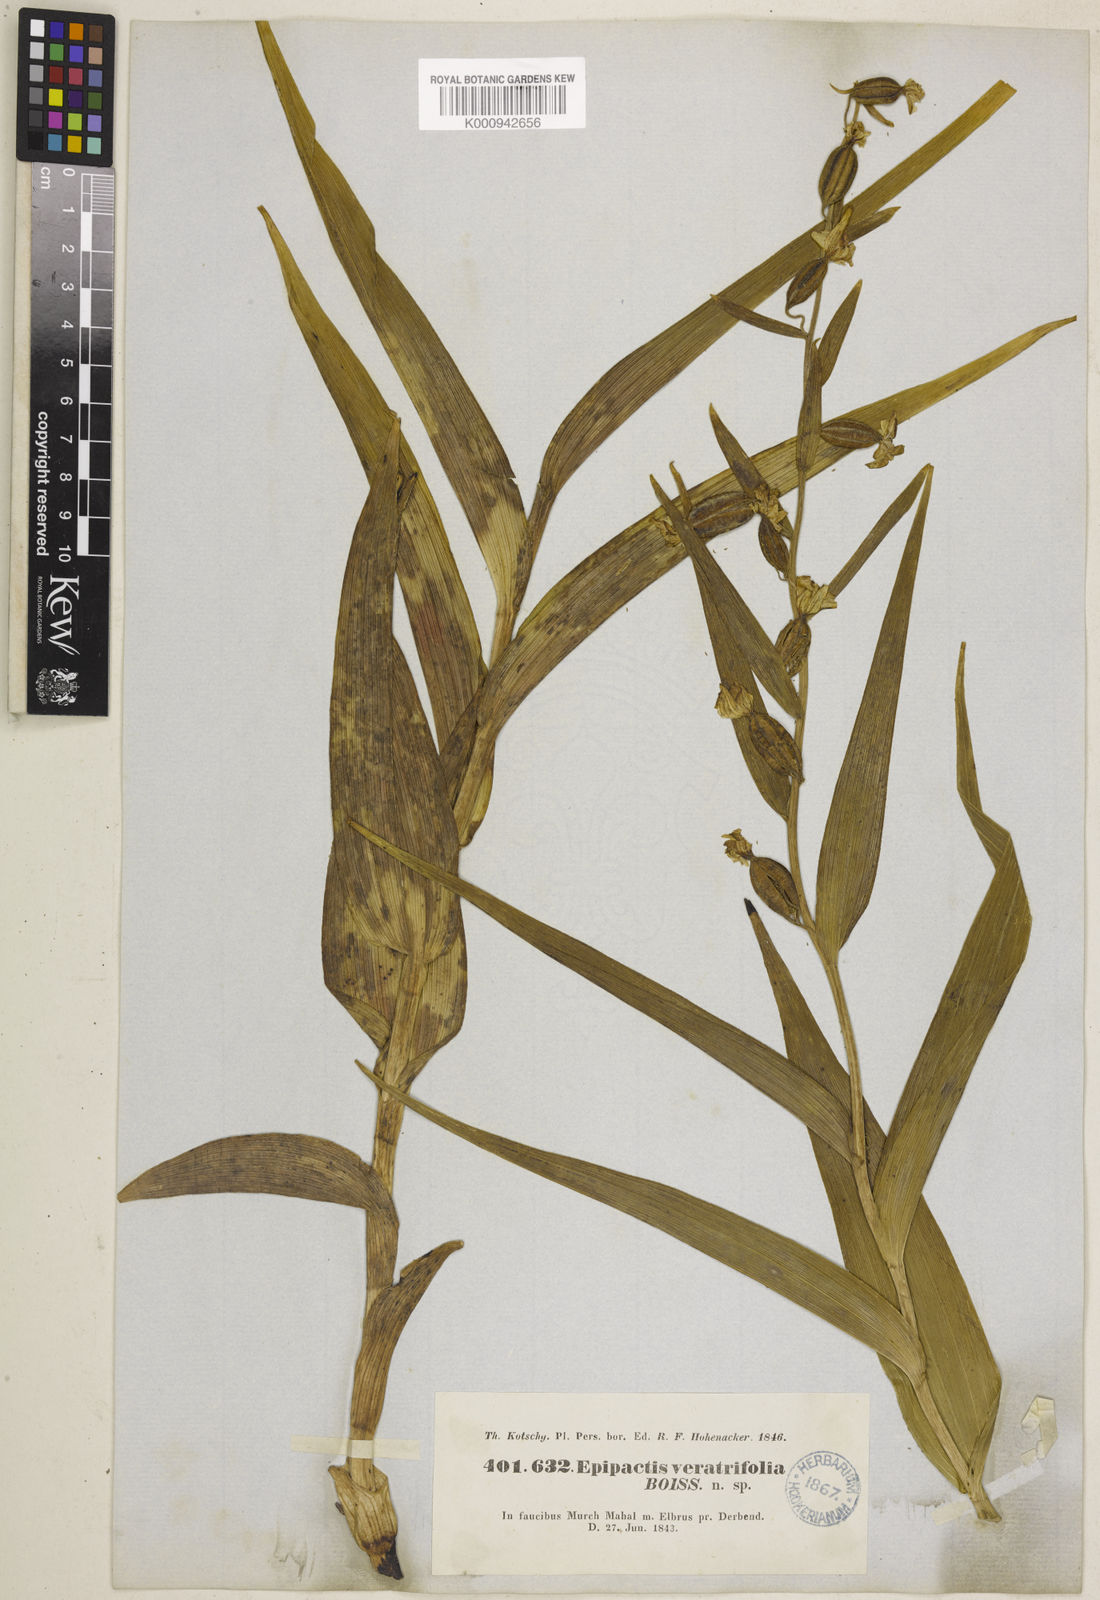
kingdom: Plantae
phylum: Tracheophyta
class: Liliopsida
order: Asparagales
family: Orchidaceae
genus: Epipactis
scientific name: Epipactis veratrifolia
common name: Eastern marsh helleborine
